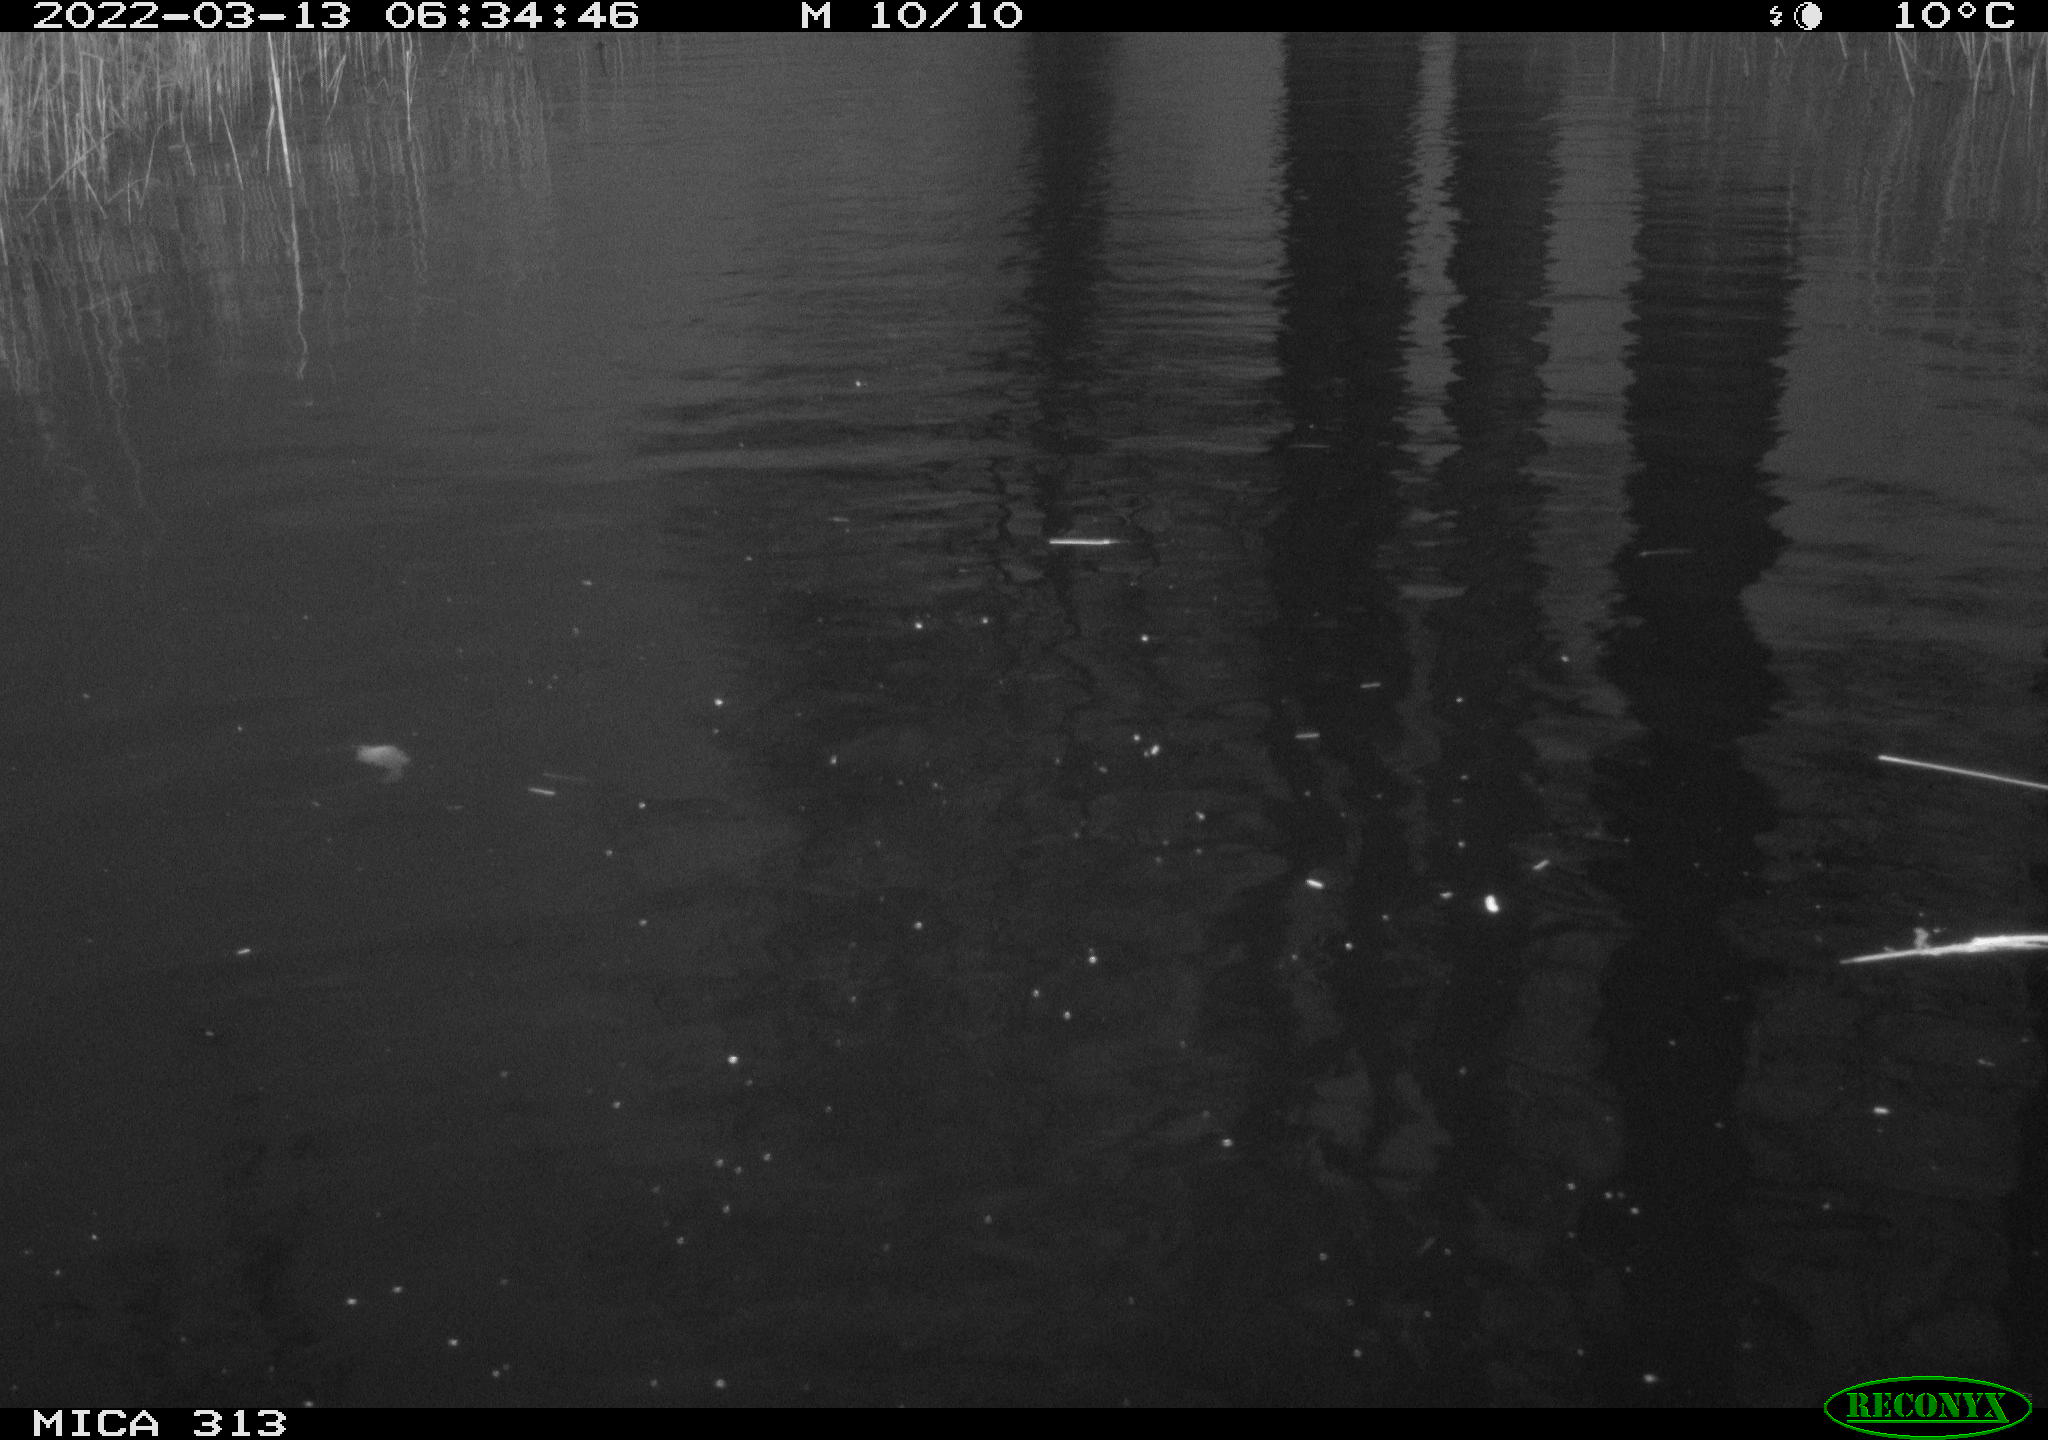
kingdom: Animalia
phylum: Chordata
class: Aves
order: Anseriformes
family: Anatidae
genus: Anas
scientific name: Anas platyrhynchos
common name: Mallard
